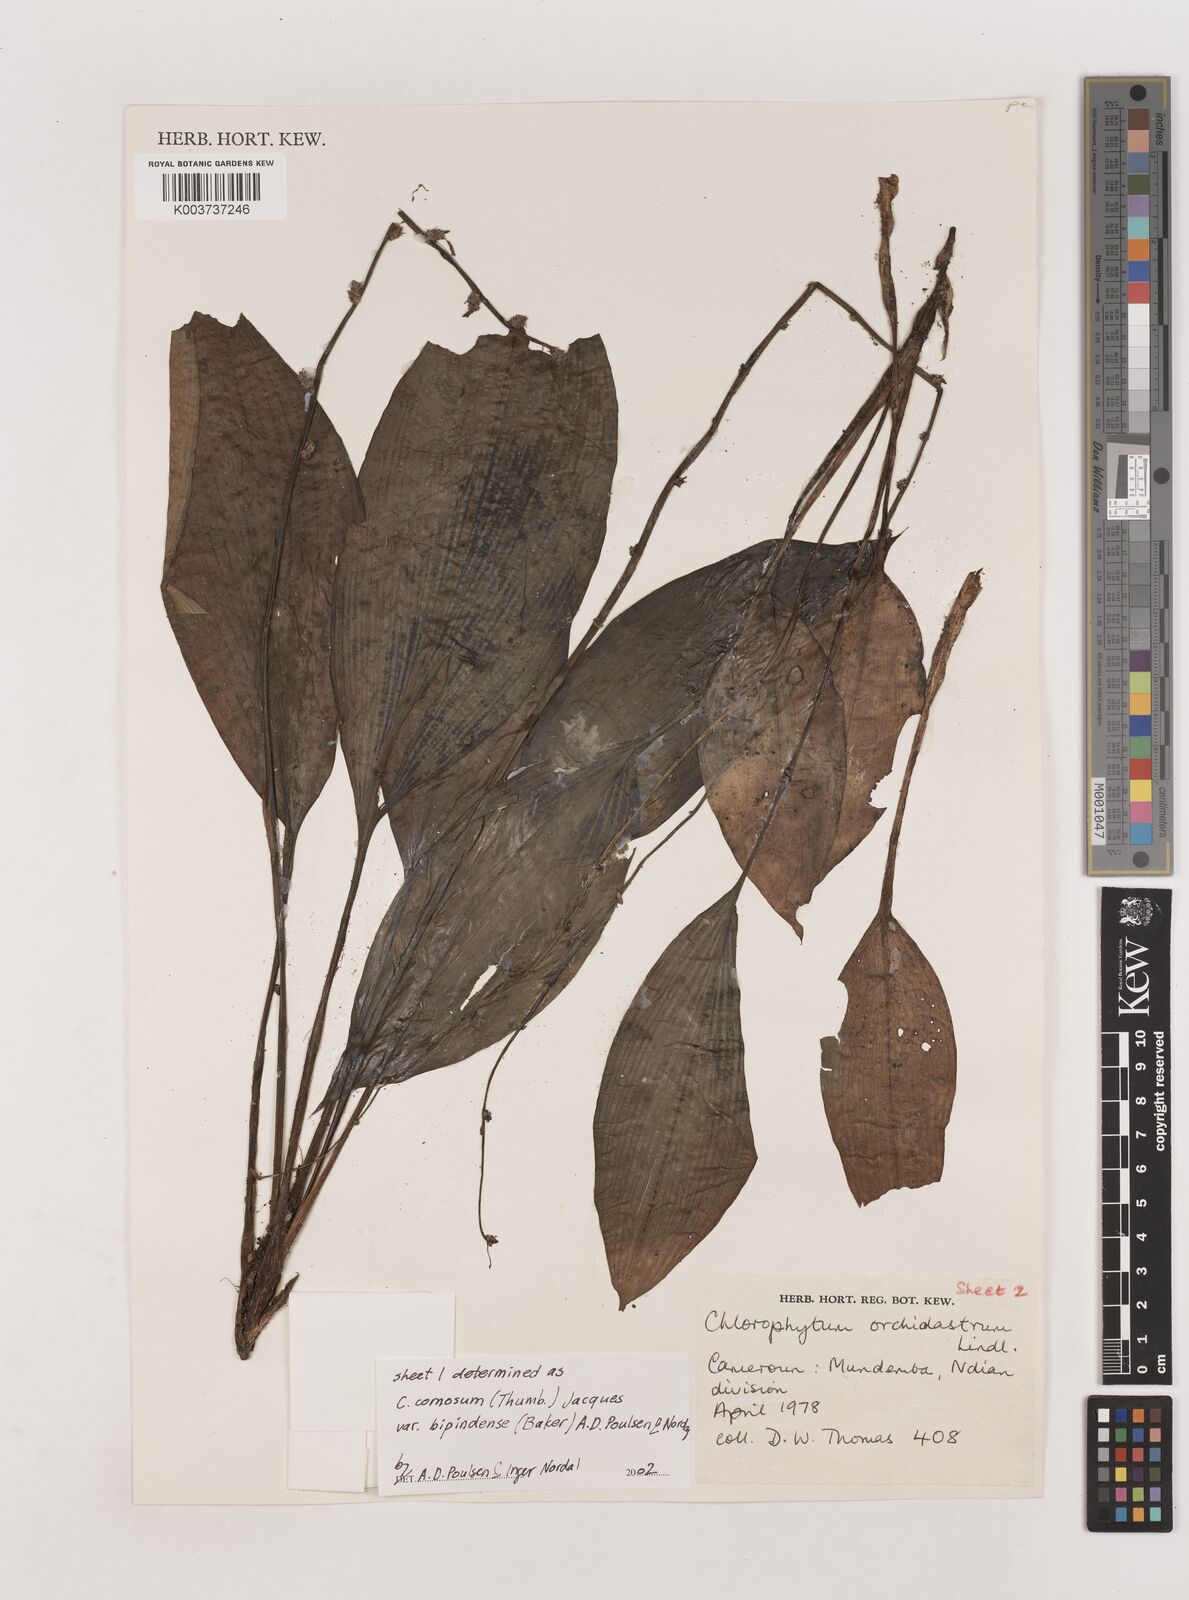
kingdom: Plantae
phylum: Tracheophyta
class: Liliopsida
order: Asparagales
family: Asparagaceae
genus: Chlorophytum
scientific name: Chlorophytum sparsiflorum
